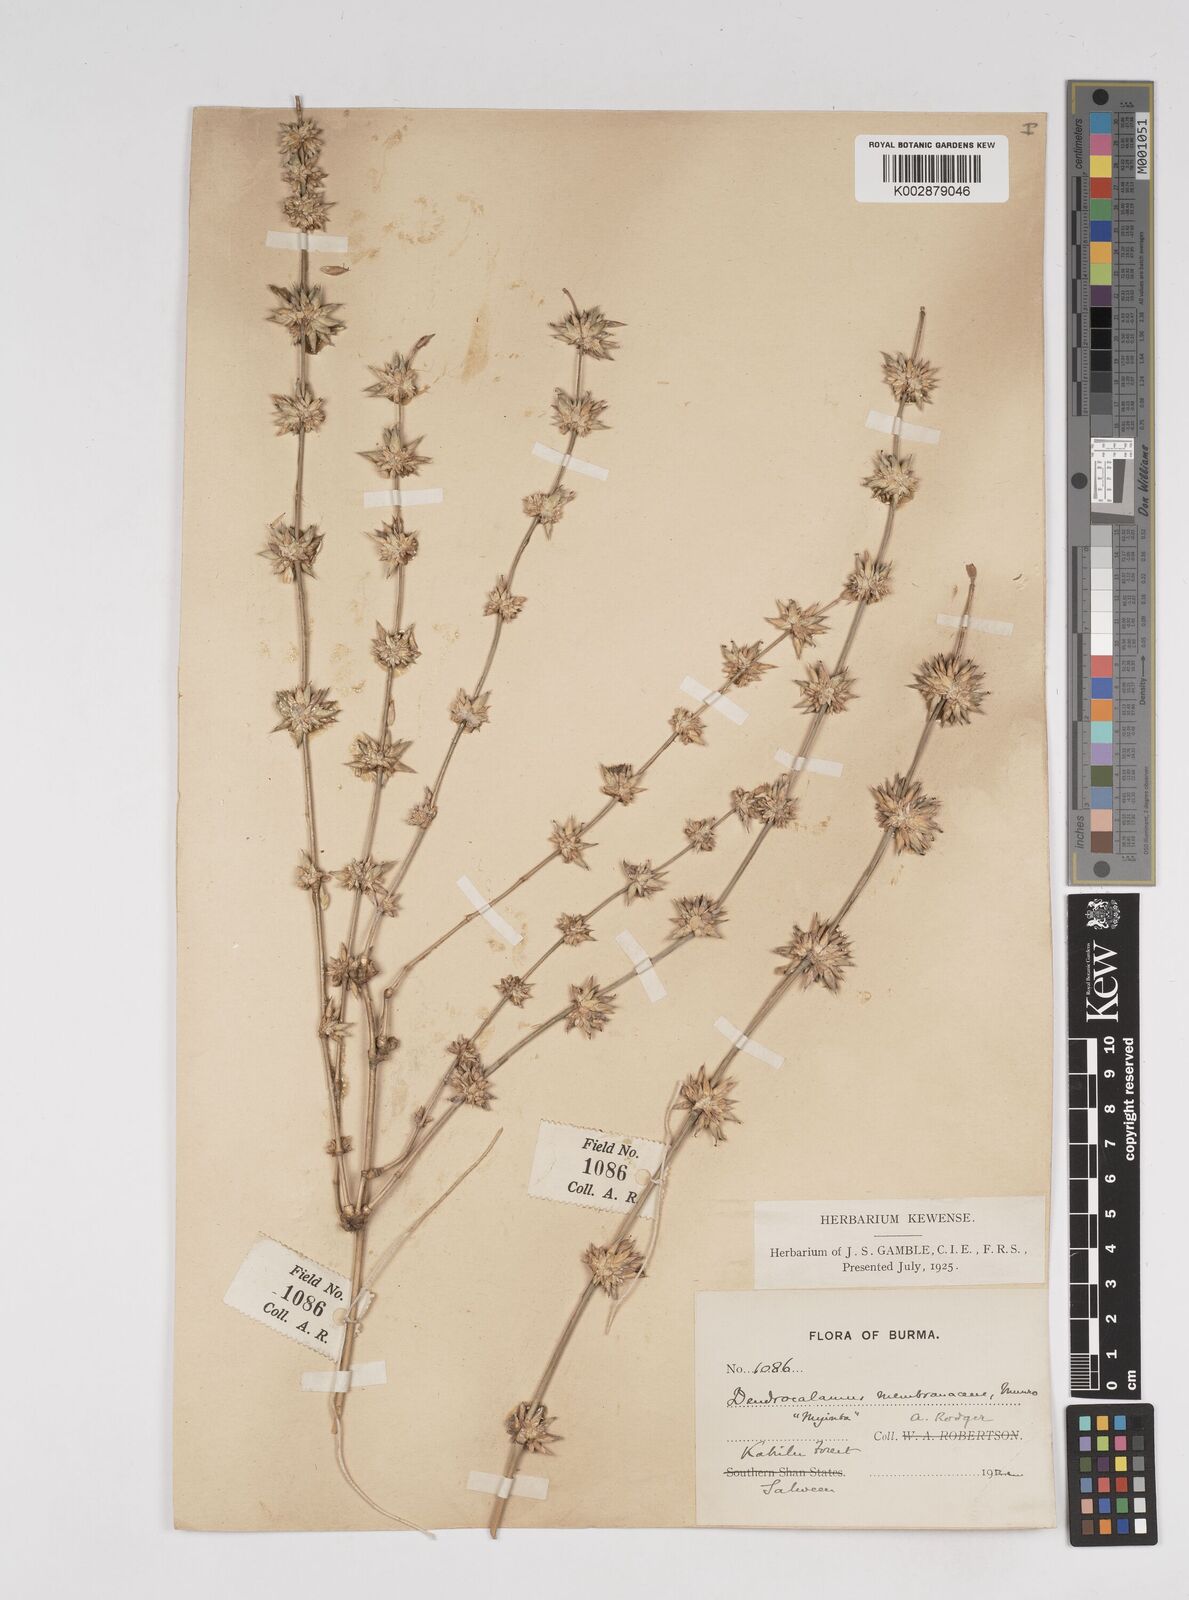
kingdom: Plantae
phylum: Tracheophyta
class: Liliopsida
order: Poales
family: Poaceae
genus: Dendrocalamus
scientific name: Dendrocalamus membranaceus
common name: White bamboo
